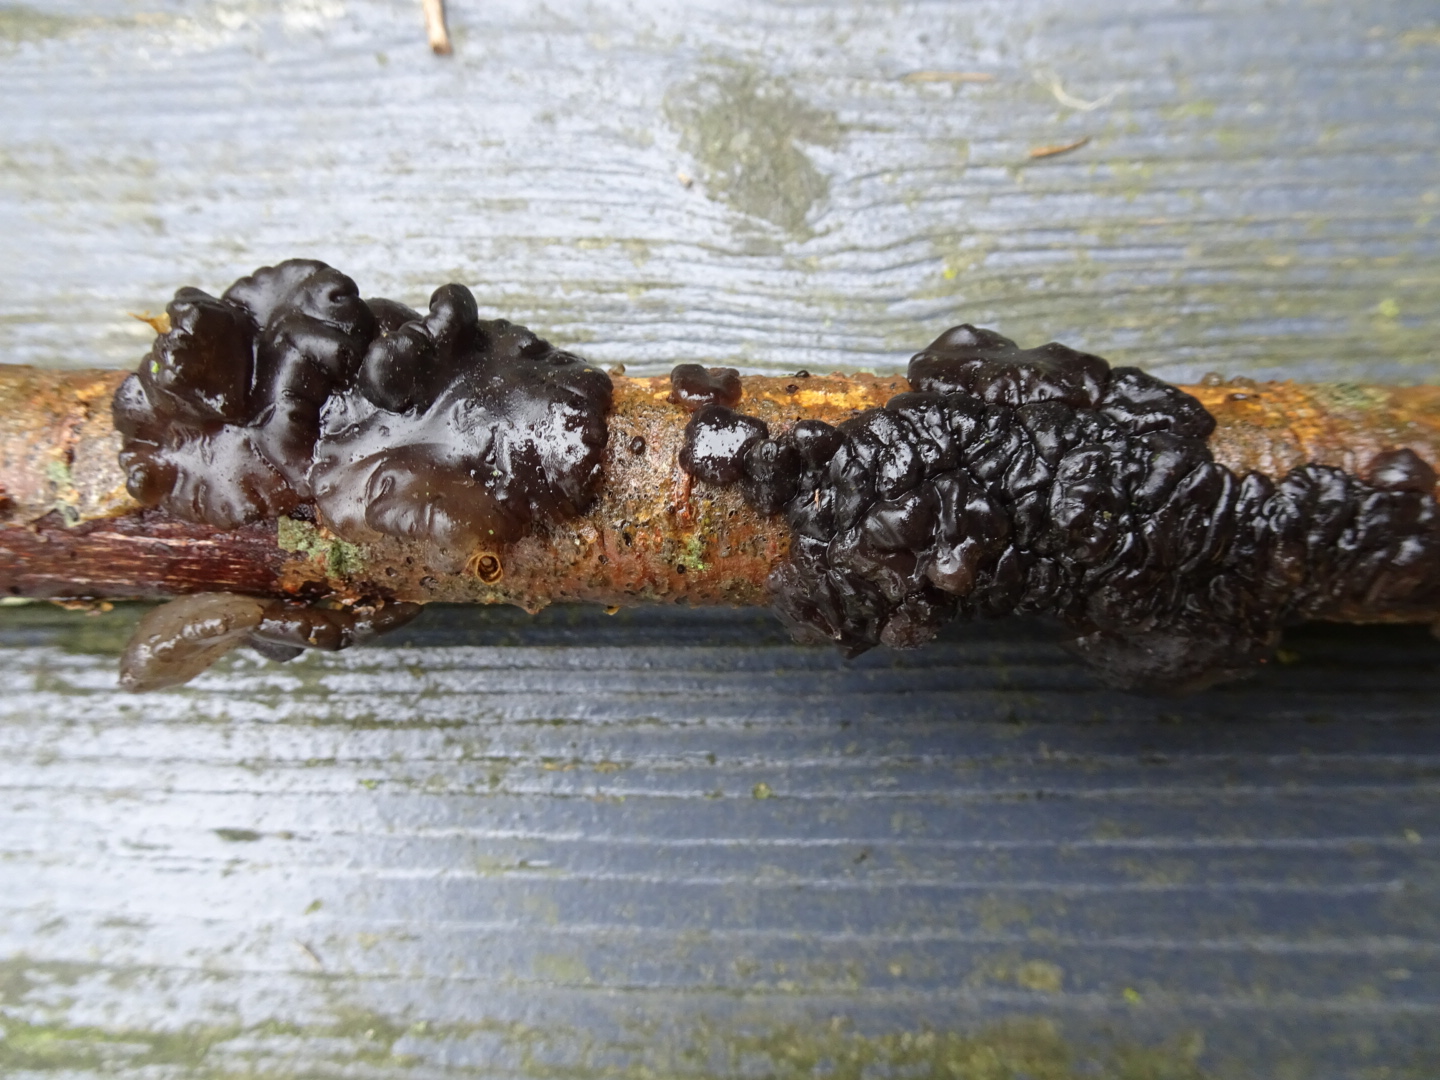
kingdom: Fungi
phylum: Basidiomycota
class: Agaricomycetes
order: Auriculariales
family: Auriculariaceae
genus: Exidia
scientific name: Exidia nigricans
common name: almindelig bævretop
